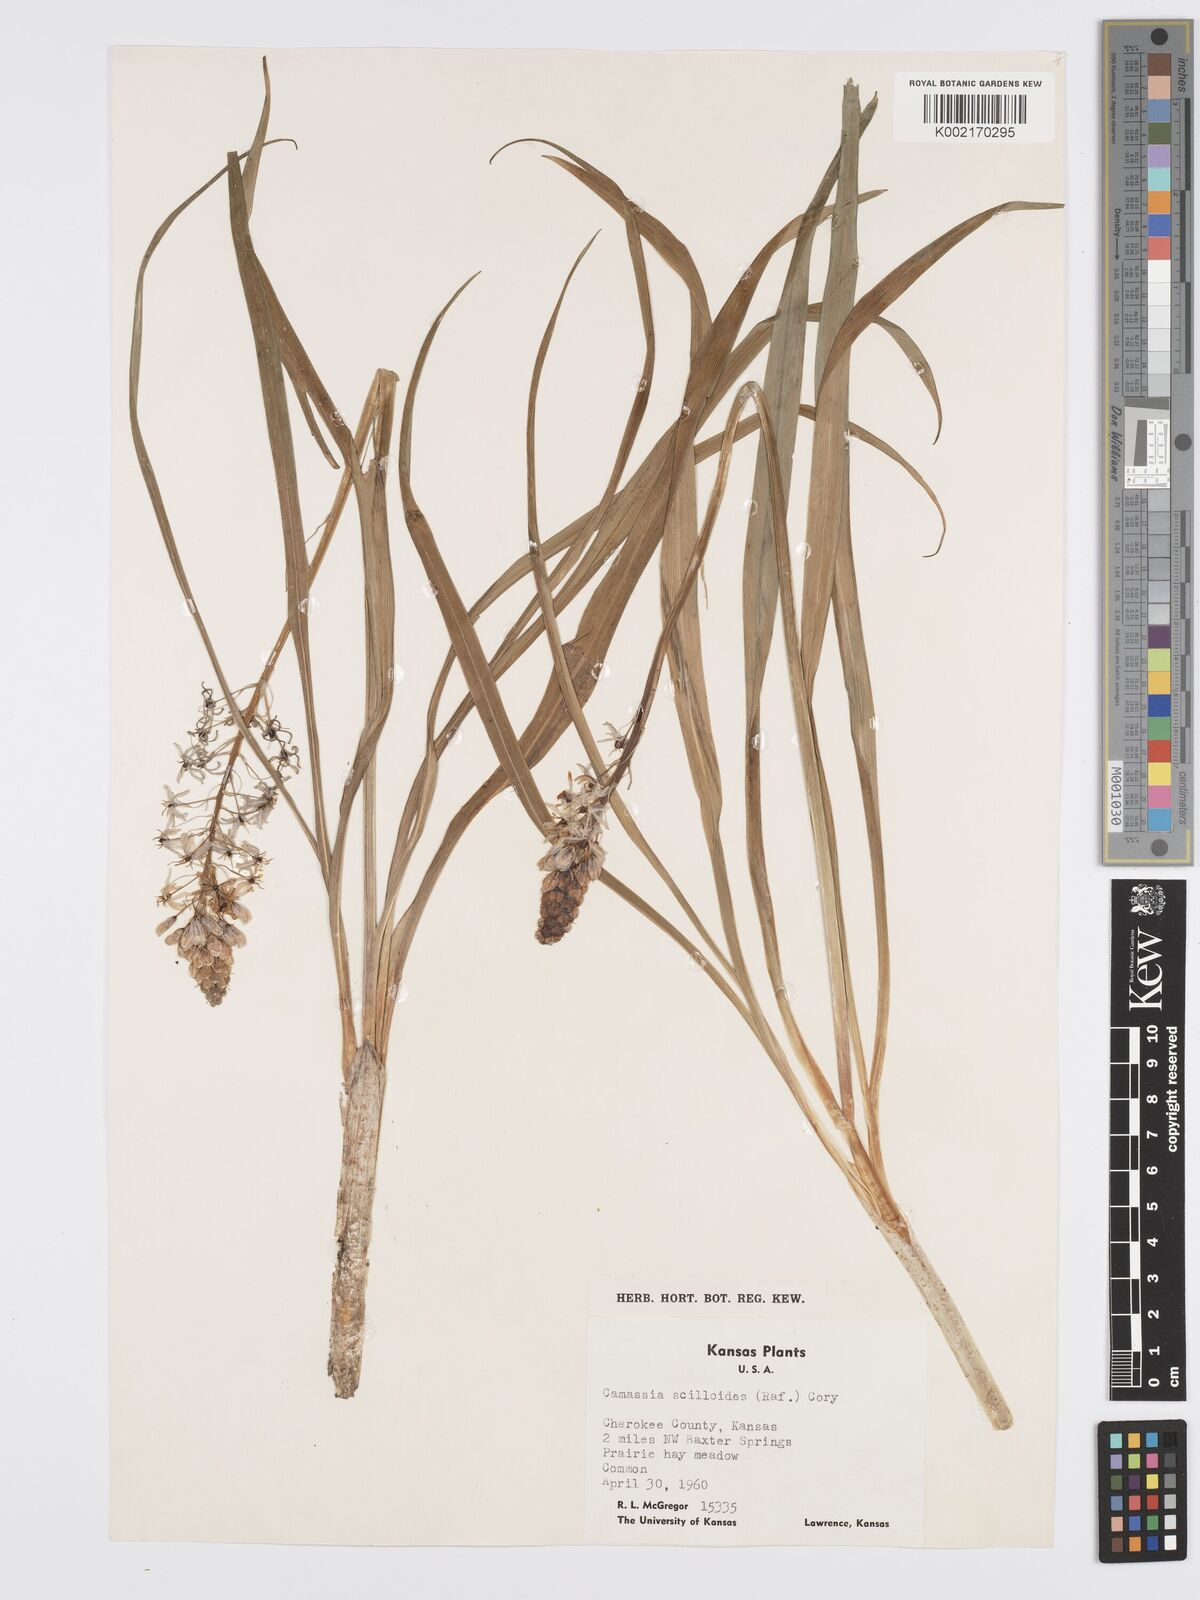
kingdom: Plantae
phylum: Tracheophyta
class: Liliopsida
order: Asparagales
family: Asparagaceae
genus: Camassia
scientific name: Camassia scilloides
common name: Wild hyacinth
